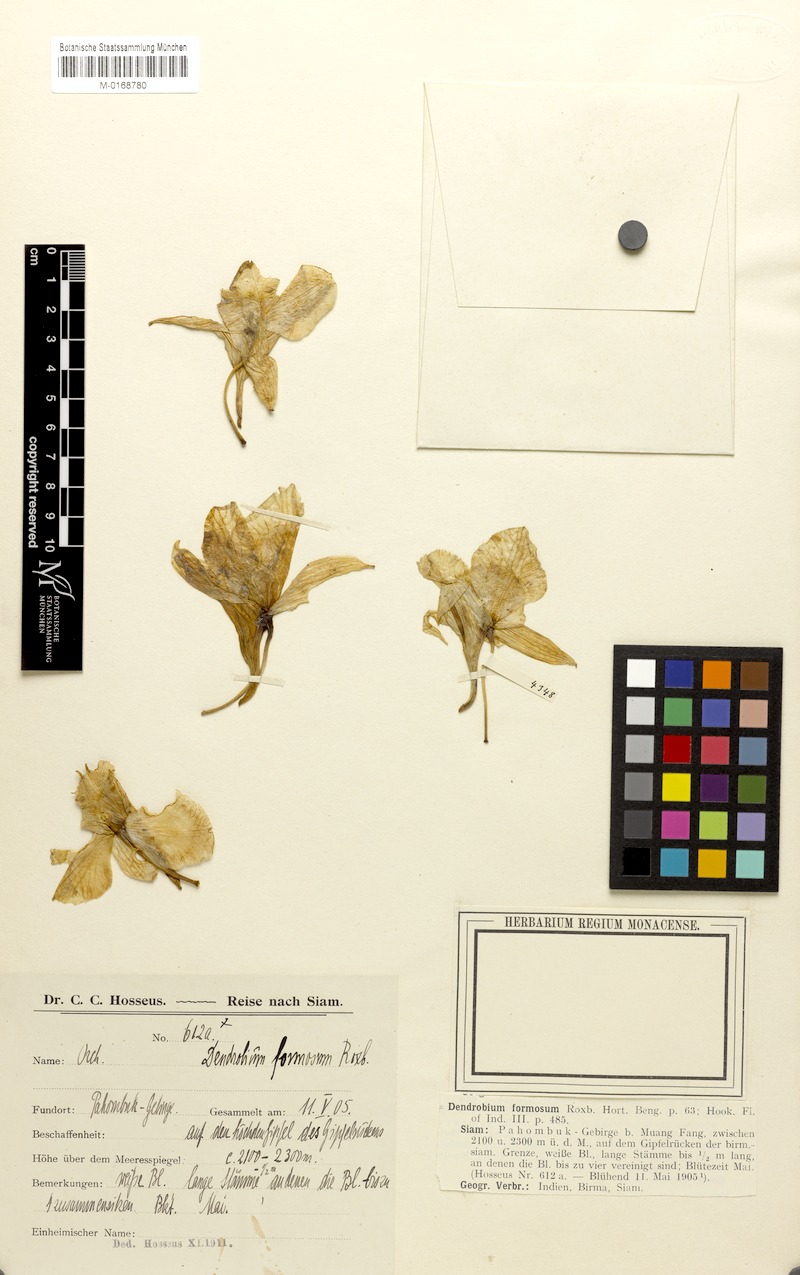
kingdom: Plantae
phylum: Tracheophyta
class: Liliopsida
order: Asparagales
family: Orchidaceae
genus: Dendrobium
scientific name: Dendrobium formosum
